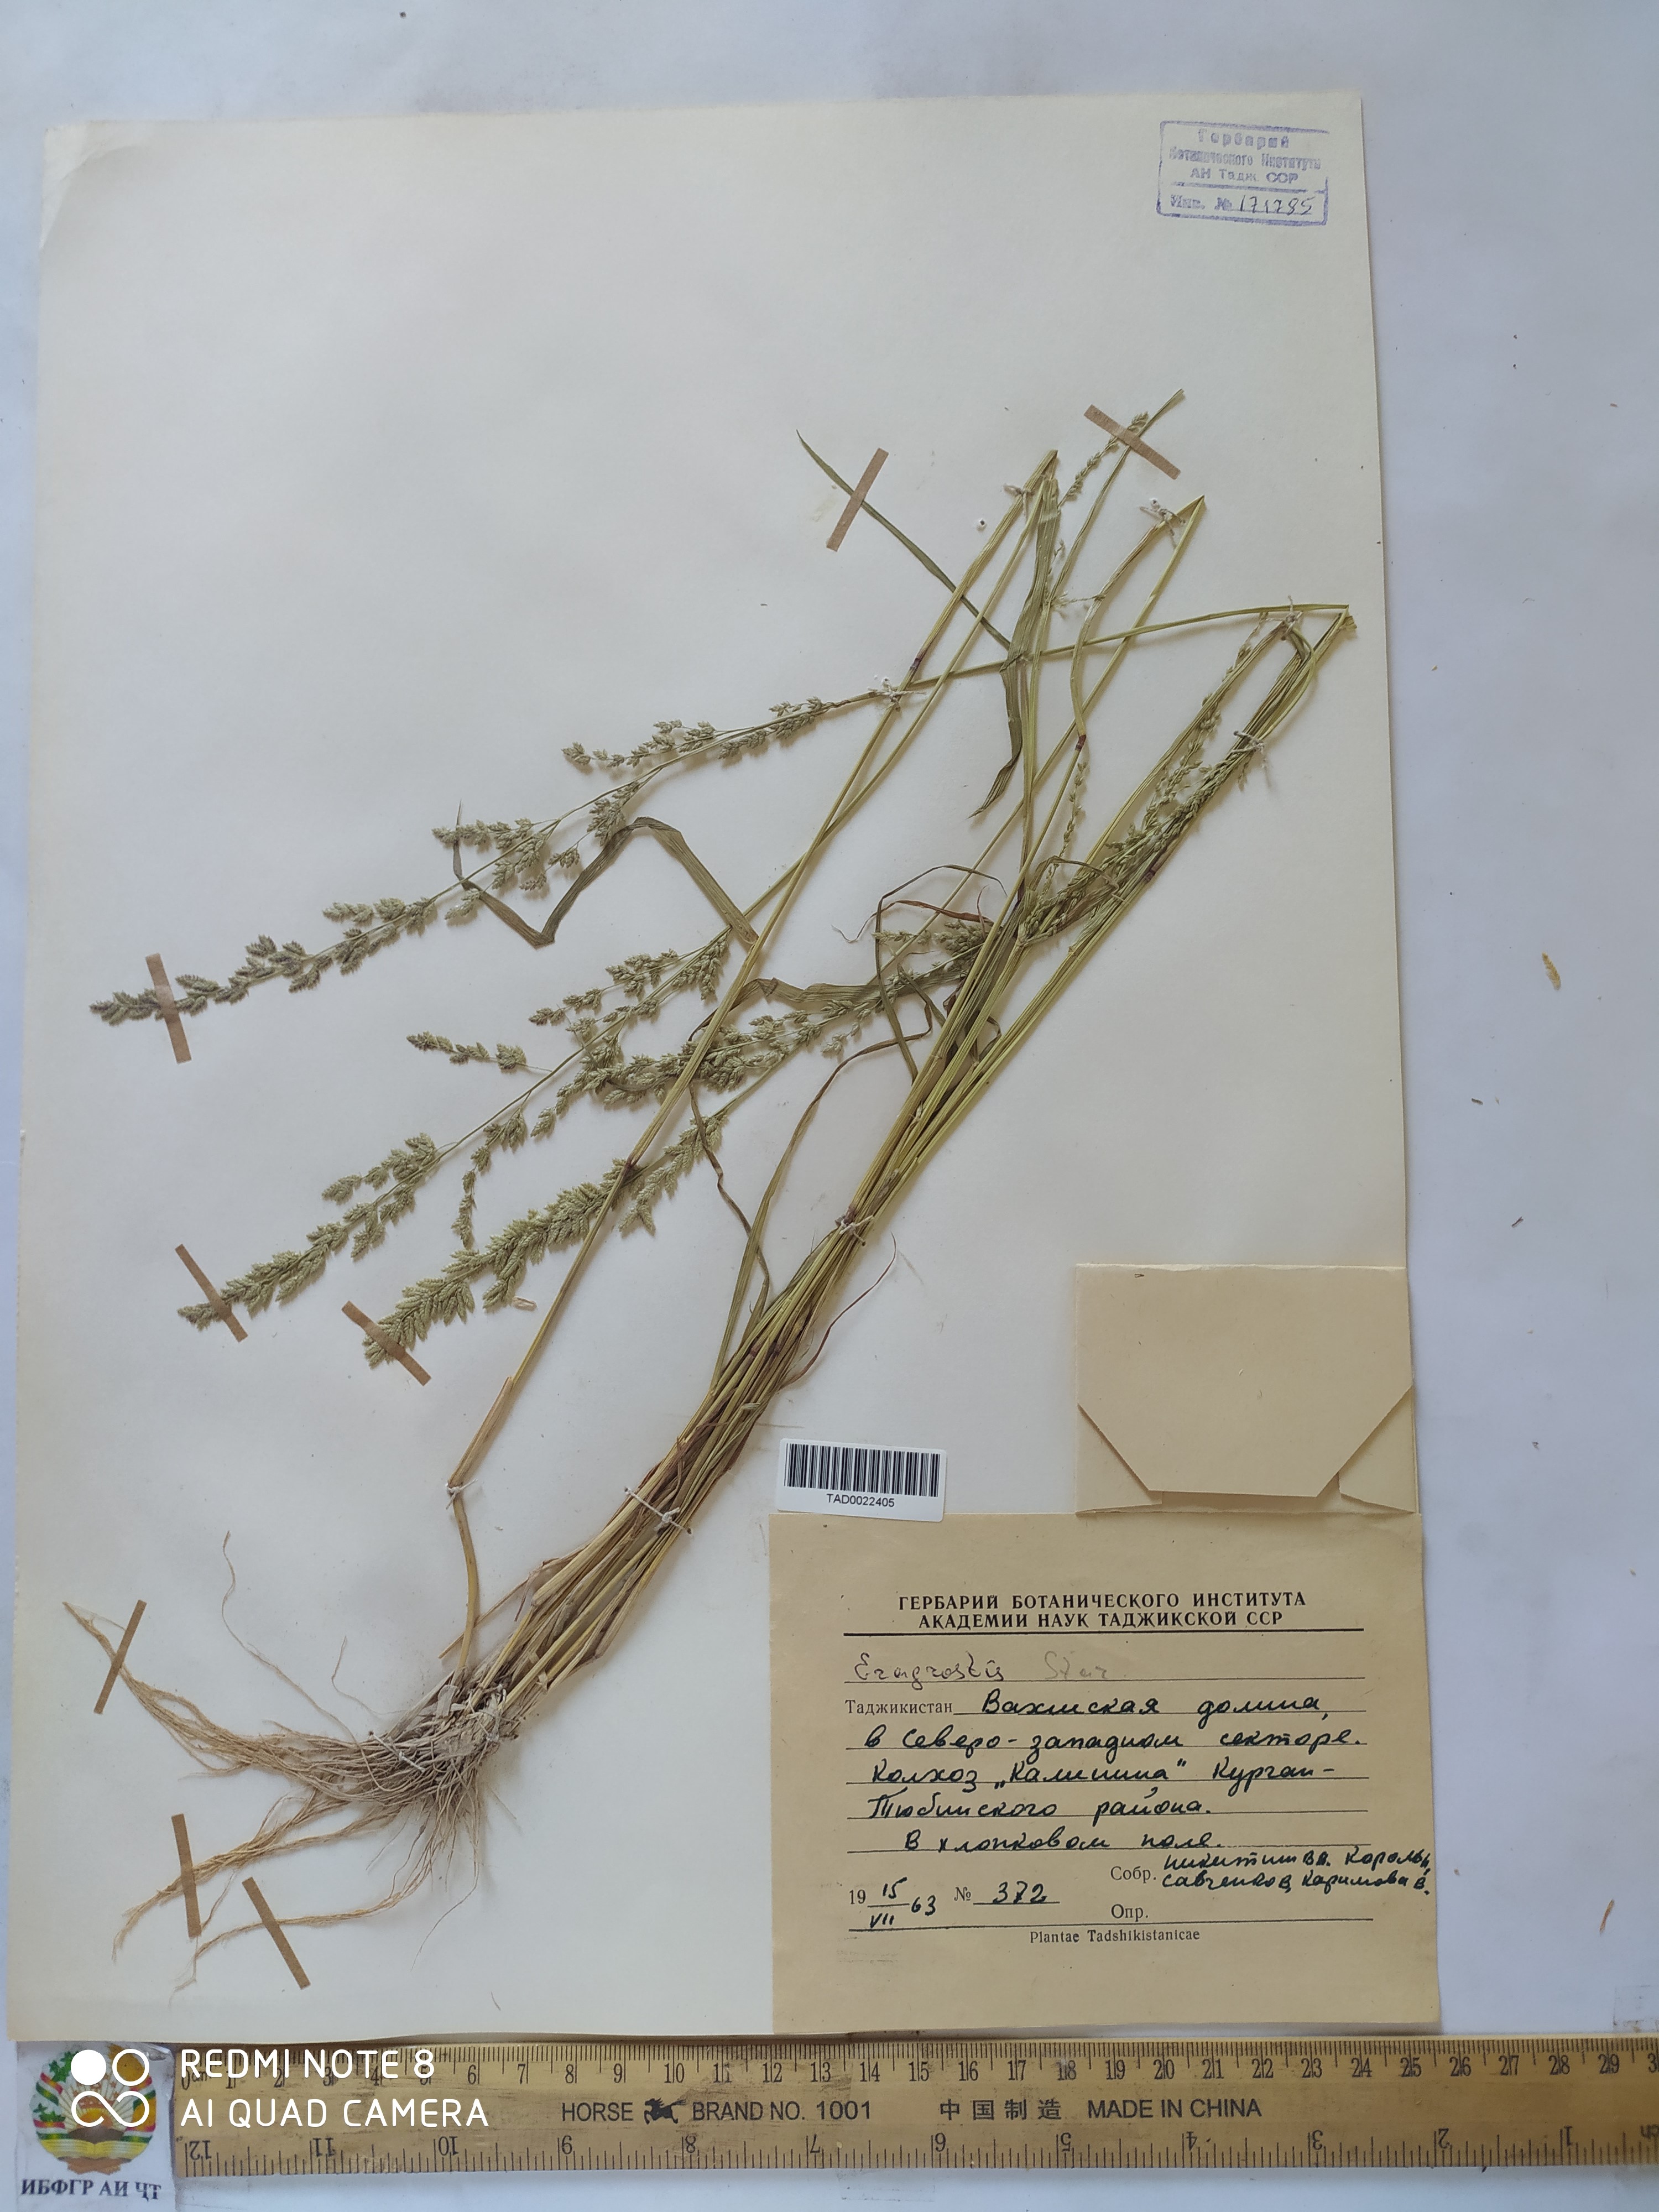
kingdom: Plantae
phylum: Tracheophyta
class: Liliopsida
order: Poales
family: Poaceae
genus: Eragrostis
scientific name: Eragrostis cilianensis
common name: Stinkgrass
